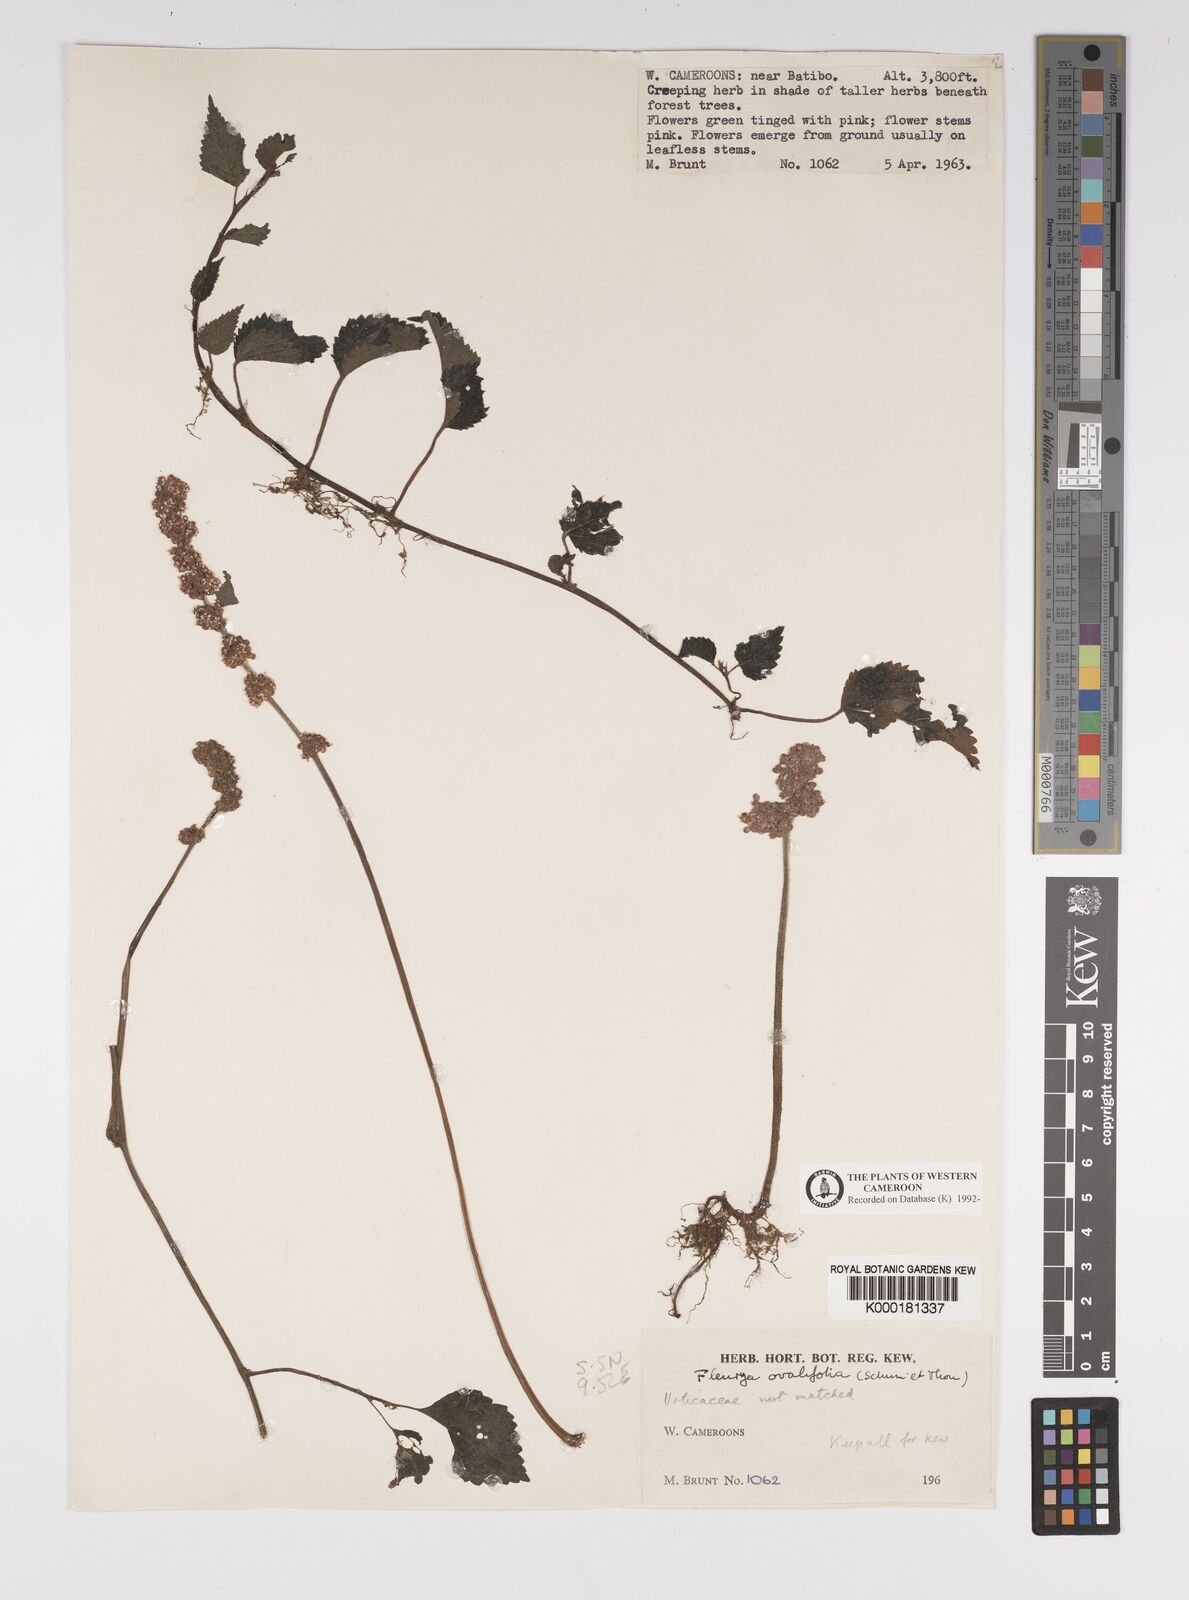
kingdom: Plantae
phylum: Tracheophyta
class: Magnoliopsida
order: Rosales
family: Urticaceae
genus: Laportea
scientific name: Laportea ovalifolia
